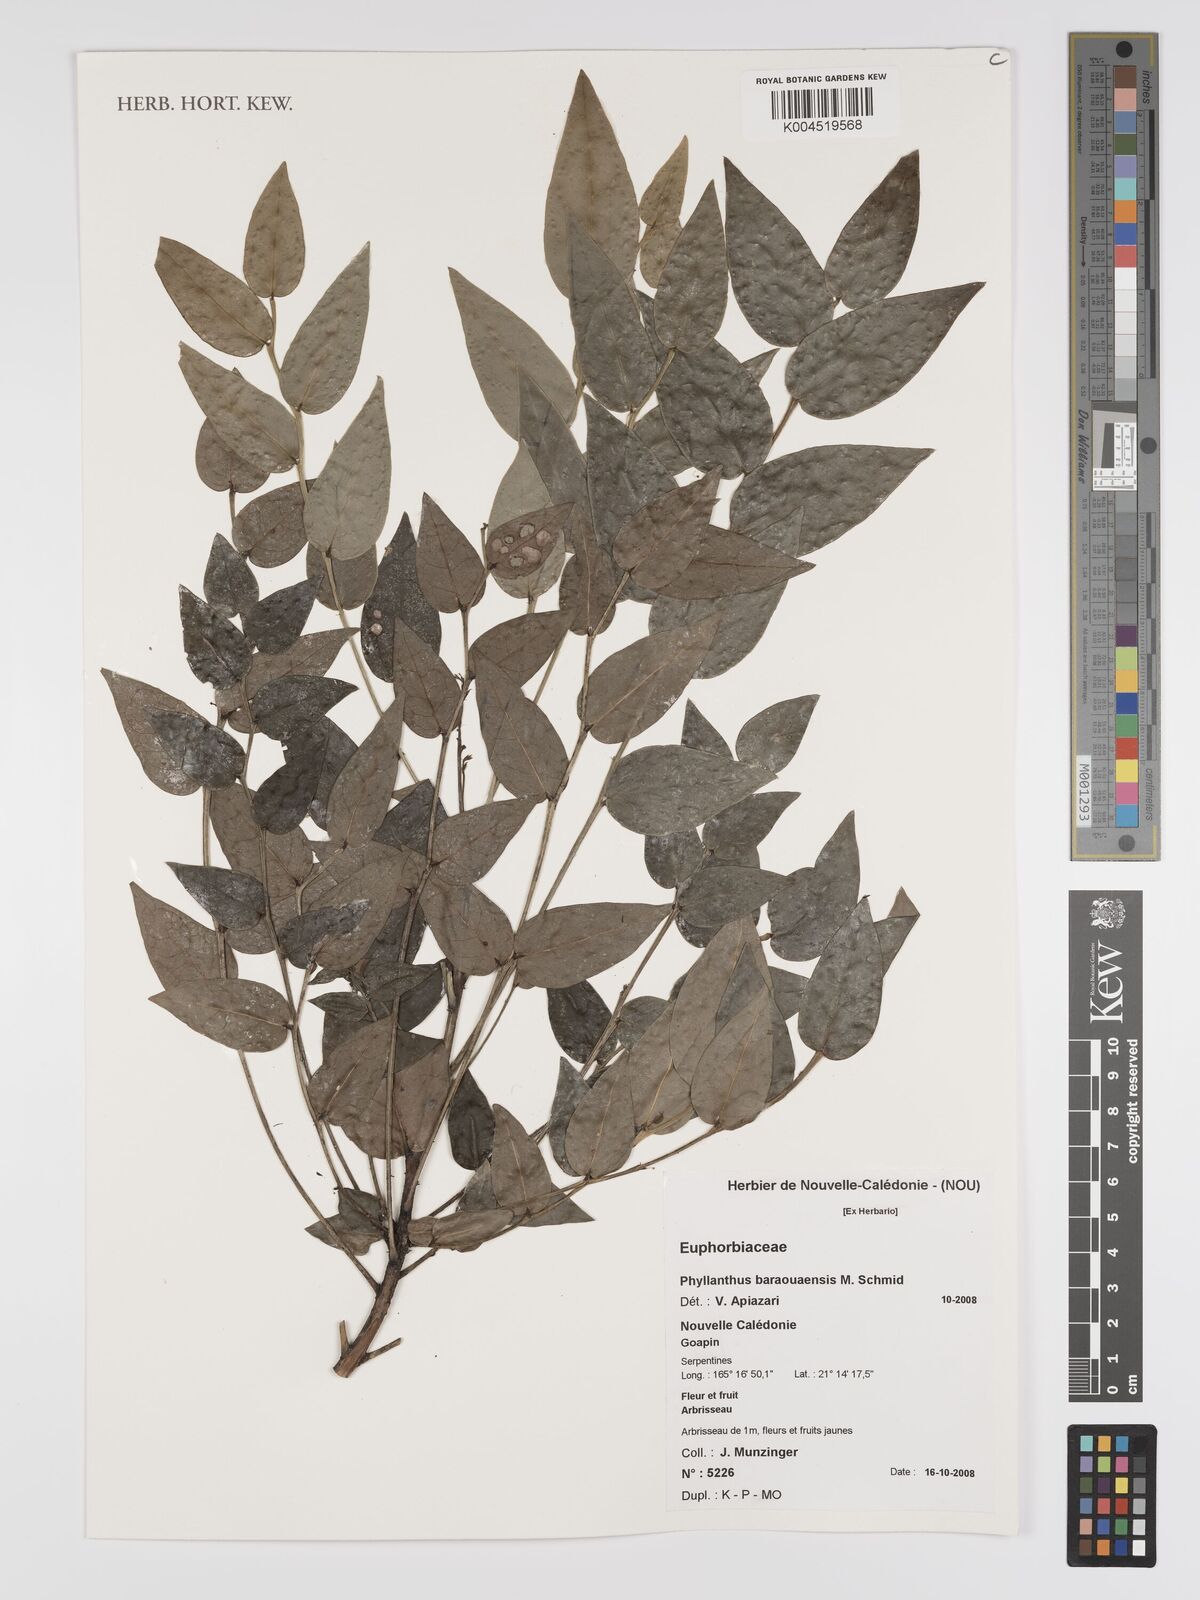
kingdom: Plantae
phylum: Tracheophyta
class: Magnoliopsida
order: Malpighiales
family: Phyllanthaceae
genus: Phyllanthus
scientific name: Phyllanthus baraouaensis
